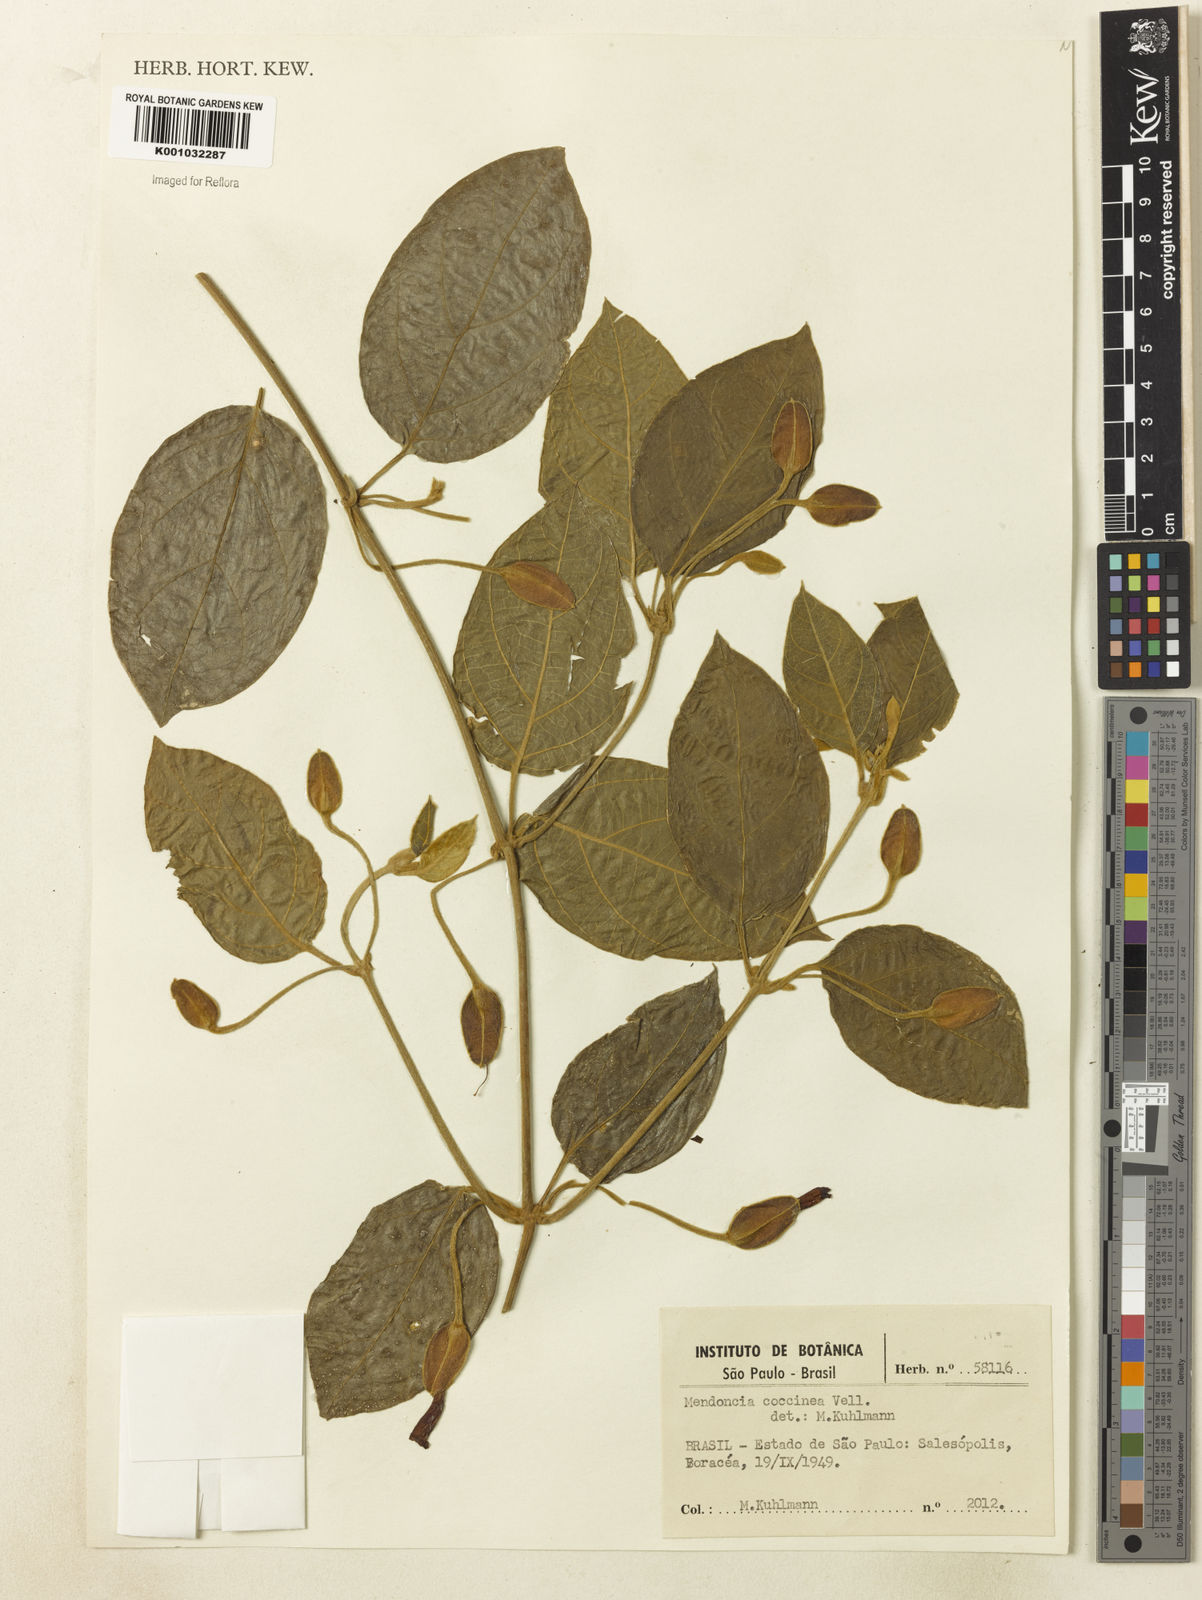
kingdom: Plantae
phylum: Tracheophyta
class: Magnoliopsida
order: Lamiales
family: Acanthaceae
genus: Mendoncia
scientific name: Mendoncia coccinea
